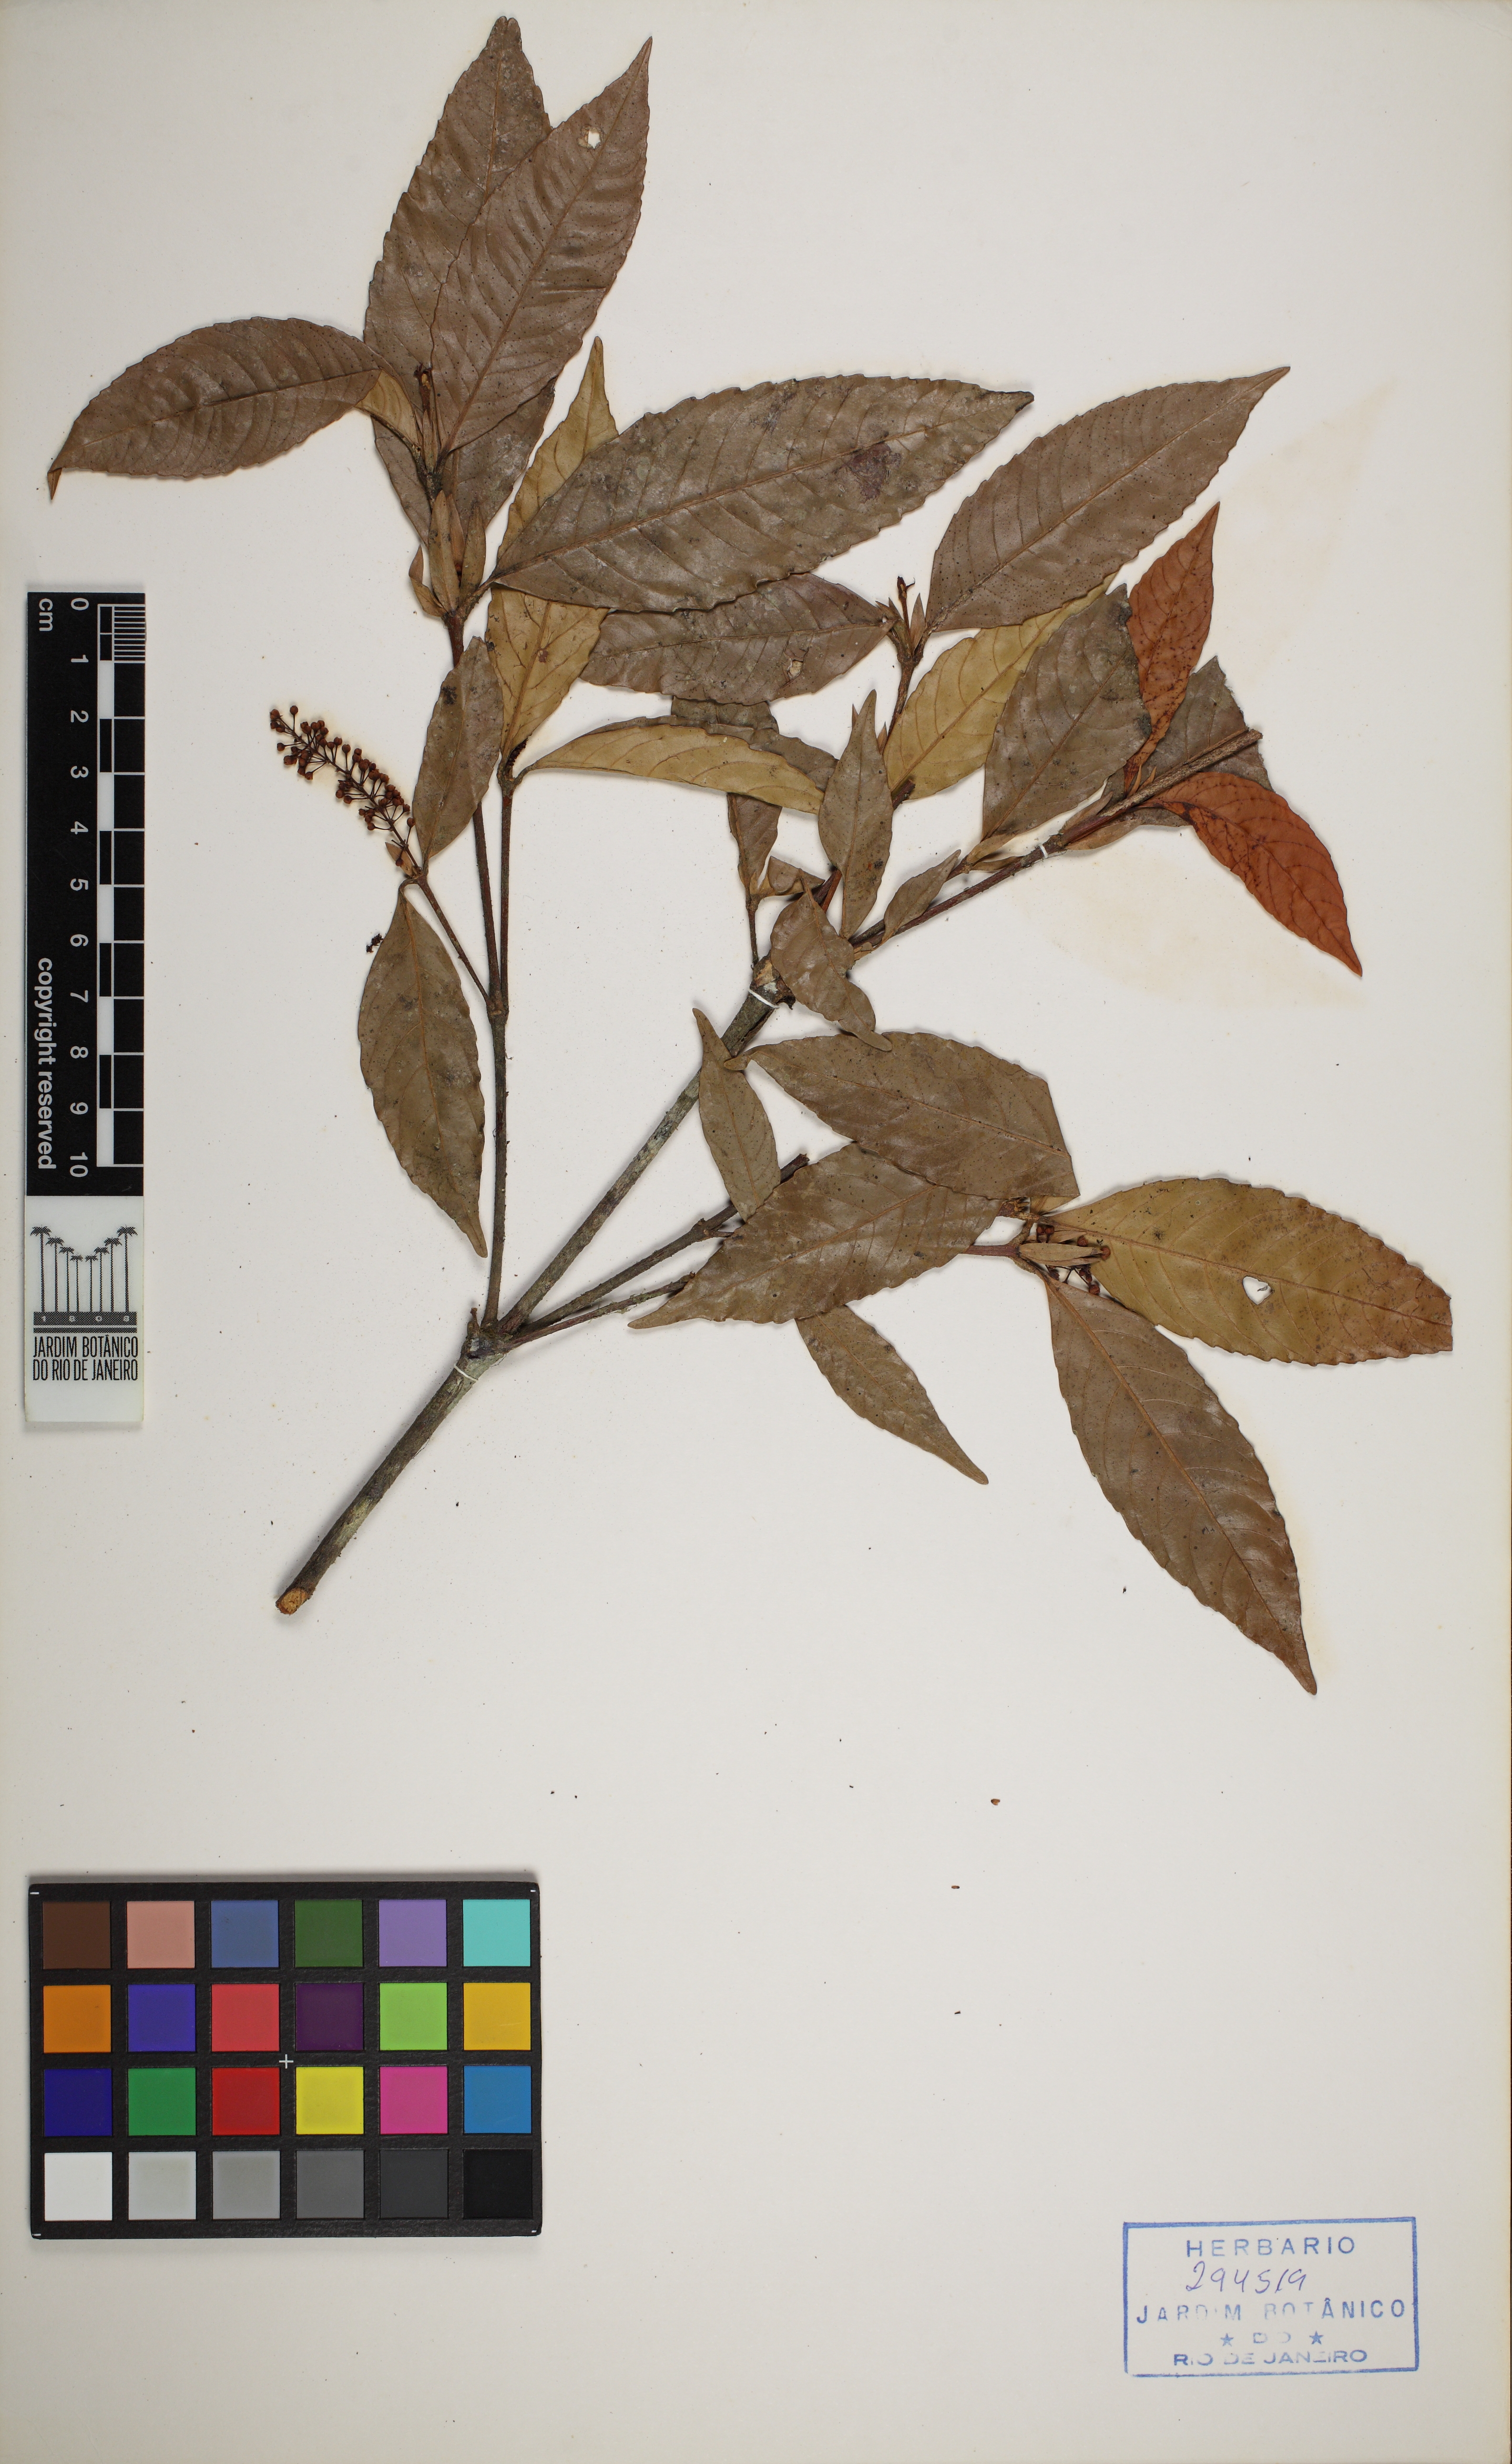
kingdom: Plantae
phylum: Tracheophyta
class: Magnoliopsida
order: Malpighiales
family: Quiinaceae
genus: Quiina
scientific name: Quiina glaziovii
